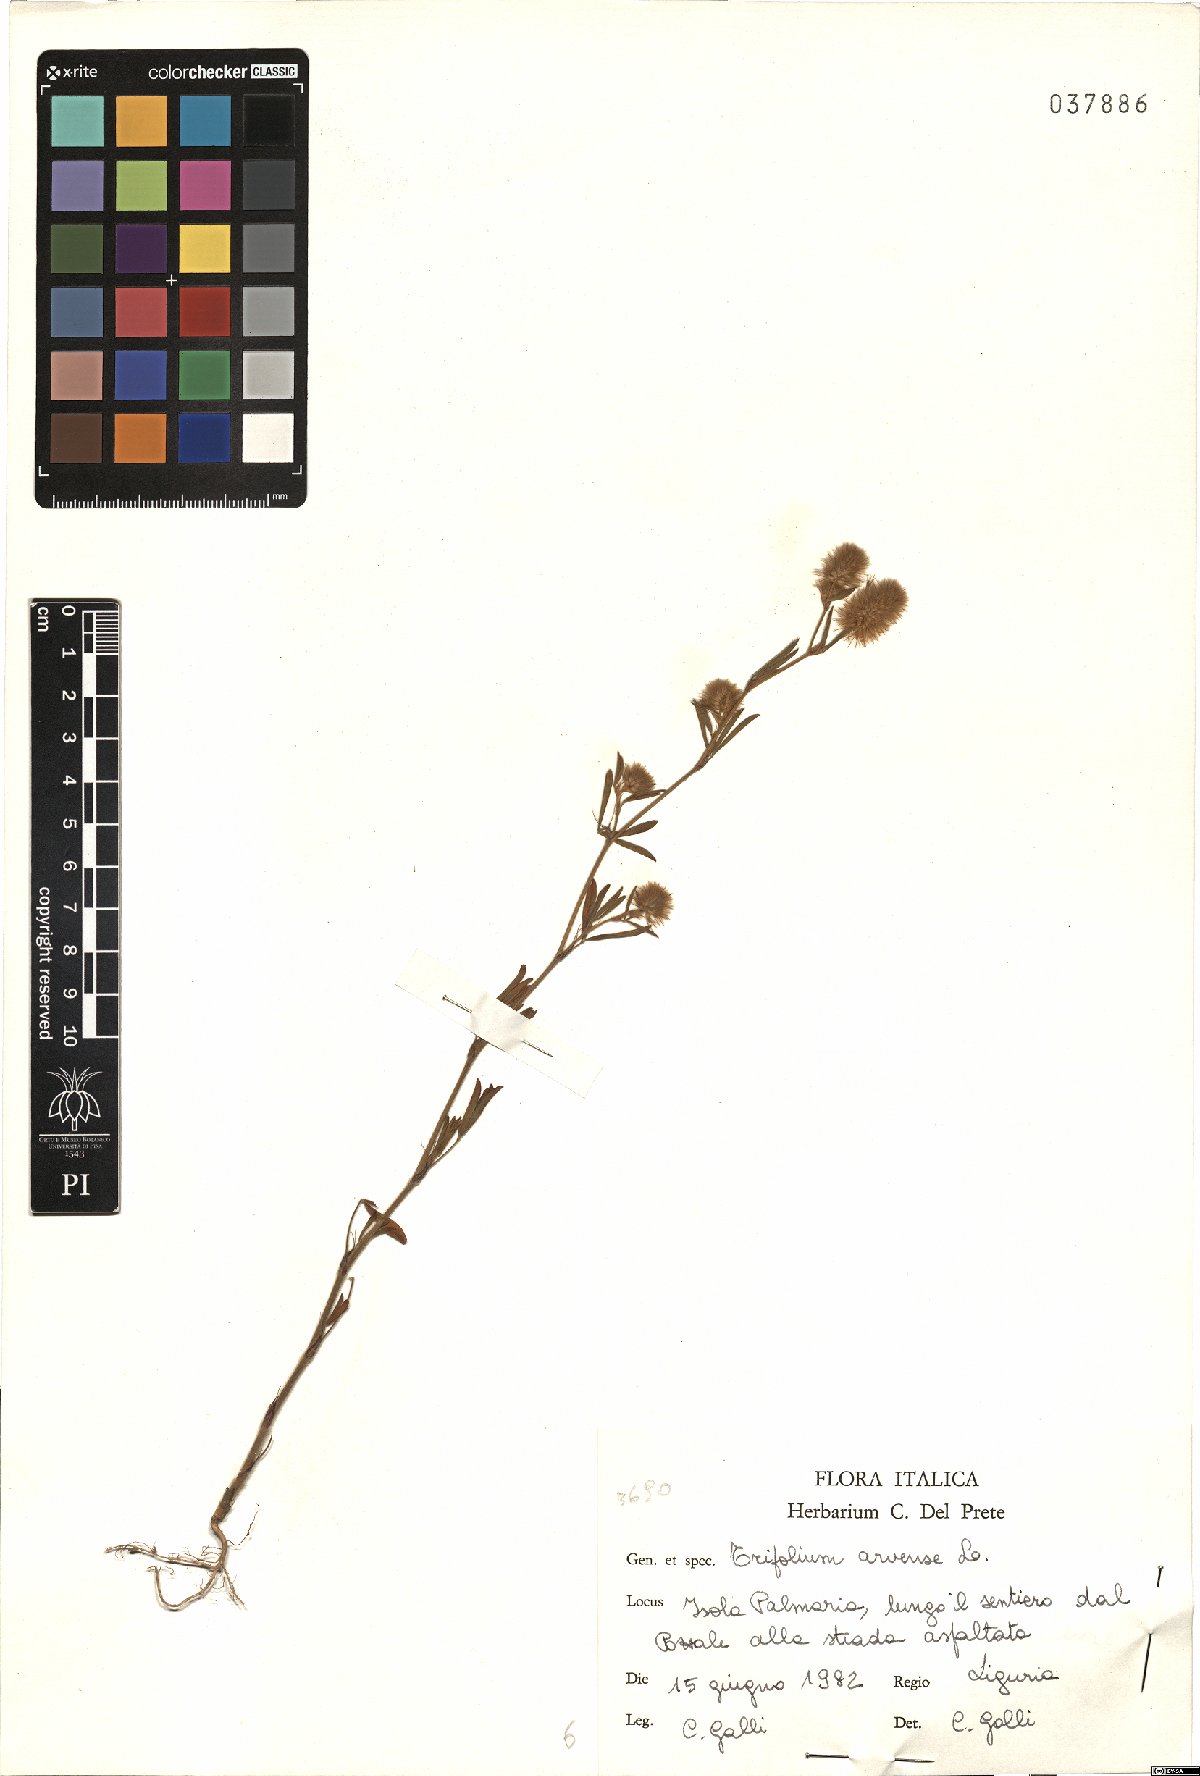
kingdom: Plantae
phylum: Tracheophyta
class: Magnoliopsida
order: Fabales
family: Fabaceae
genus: Trifolium
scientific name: Trifolium arvense
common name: Hare's-foot clover
